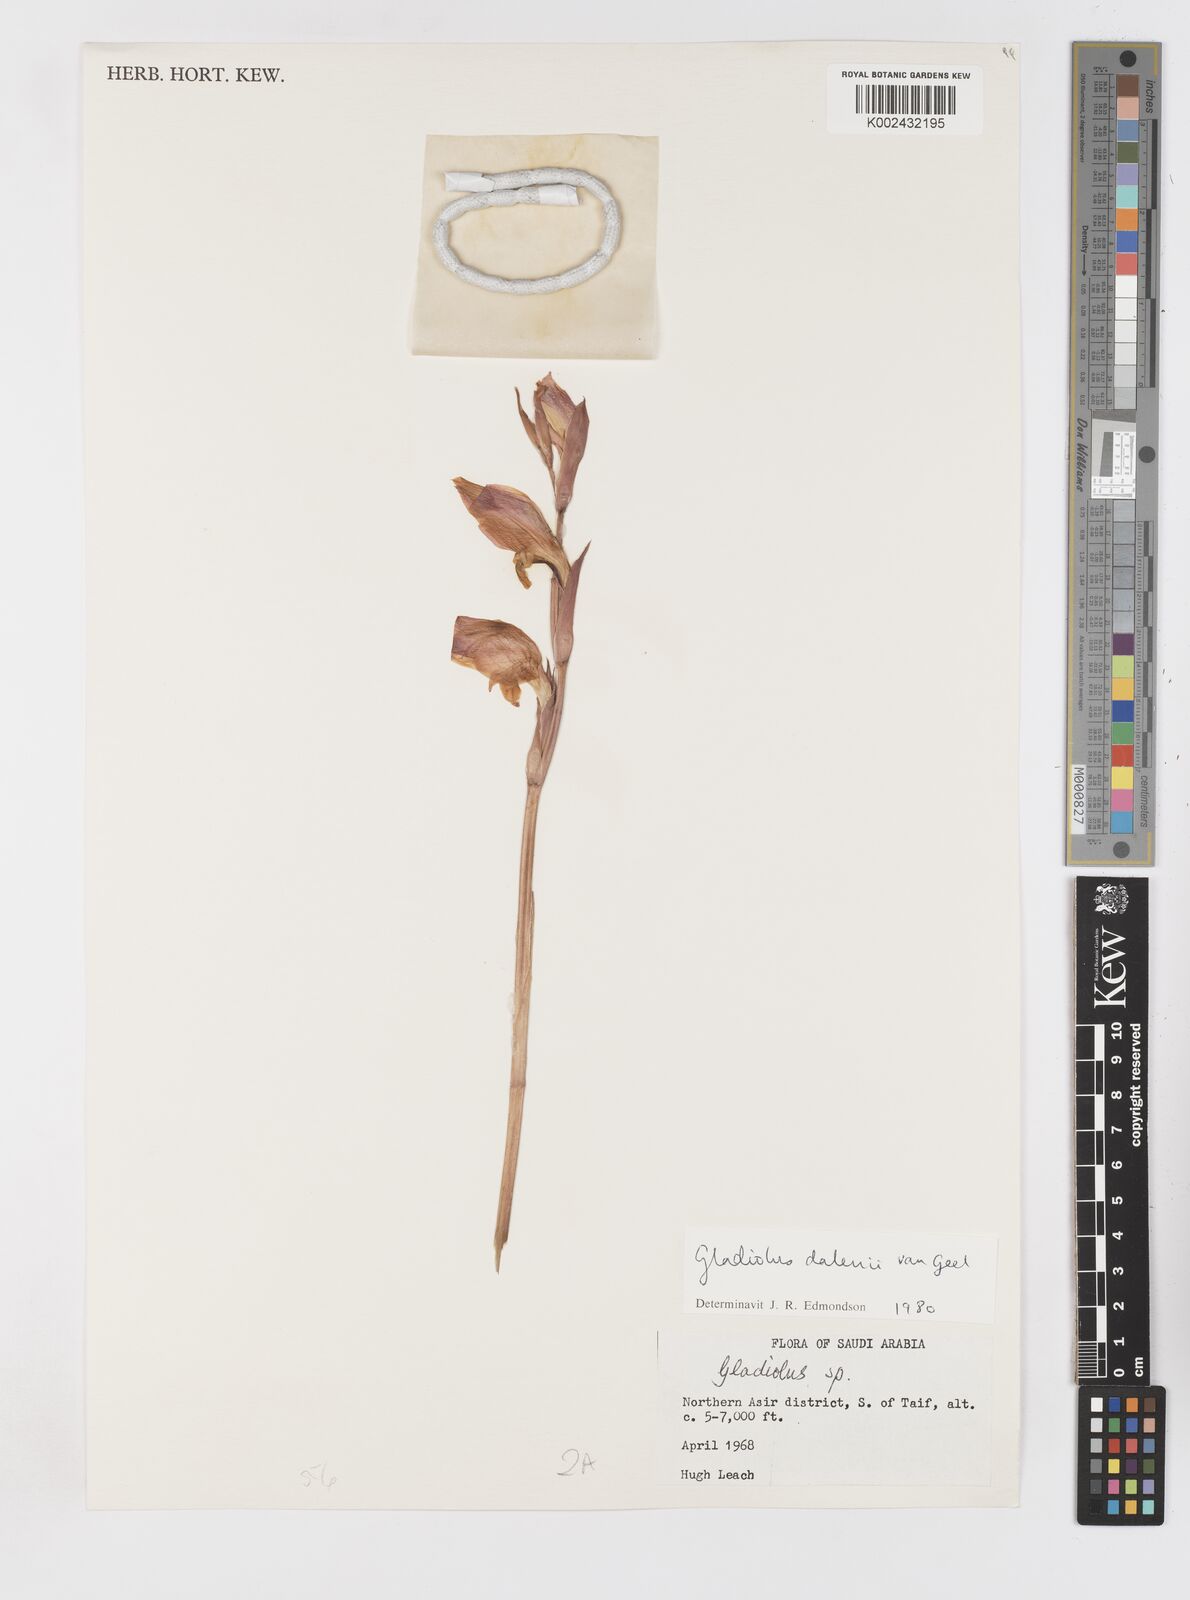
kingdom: Plantae
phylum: Tracheophyta
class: Liliopsida
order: Asparagales
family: Iridaceae
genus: Gladiolus
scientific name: Gladiolus dalenii
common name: Cornflag
